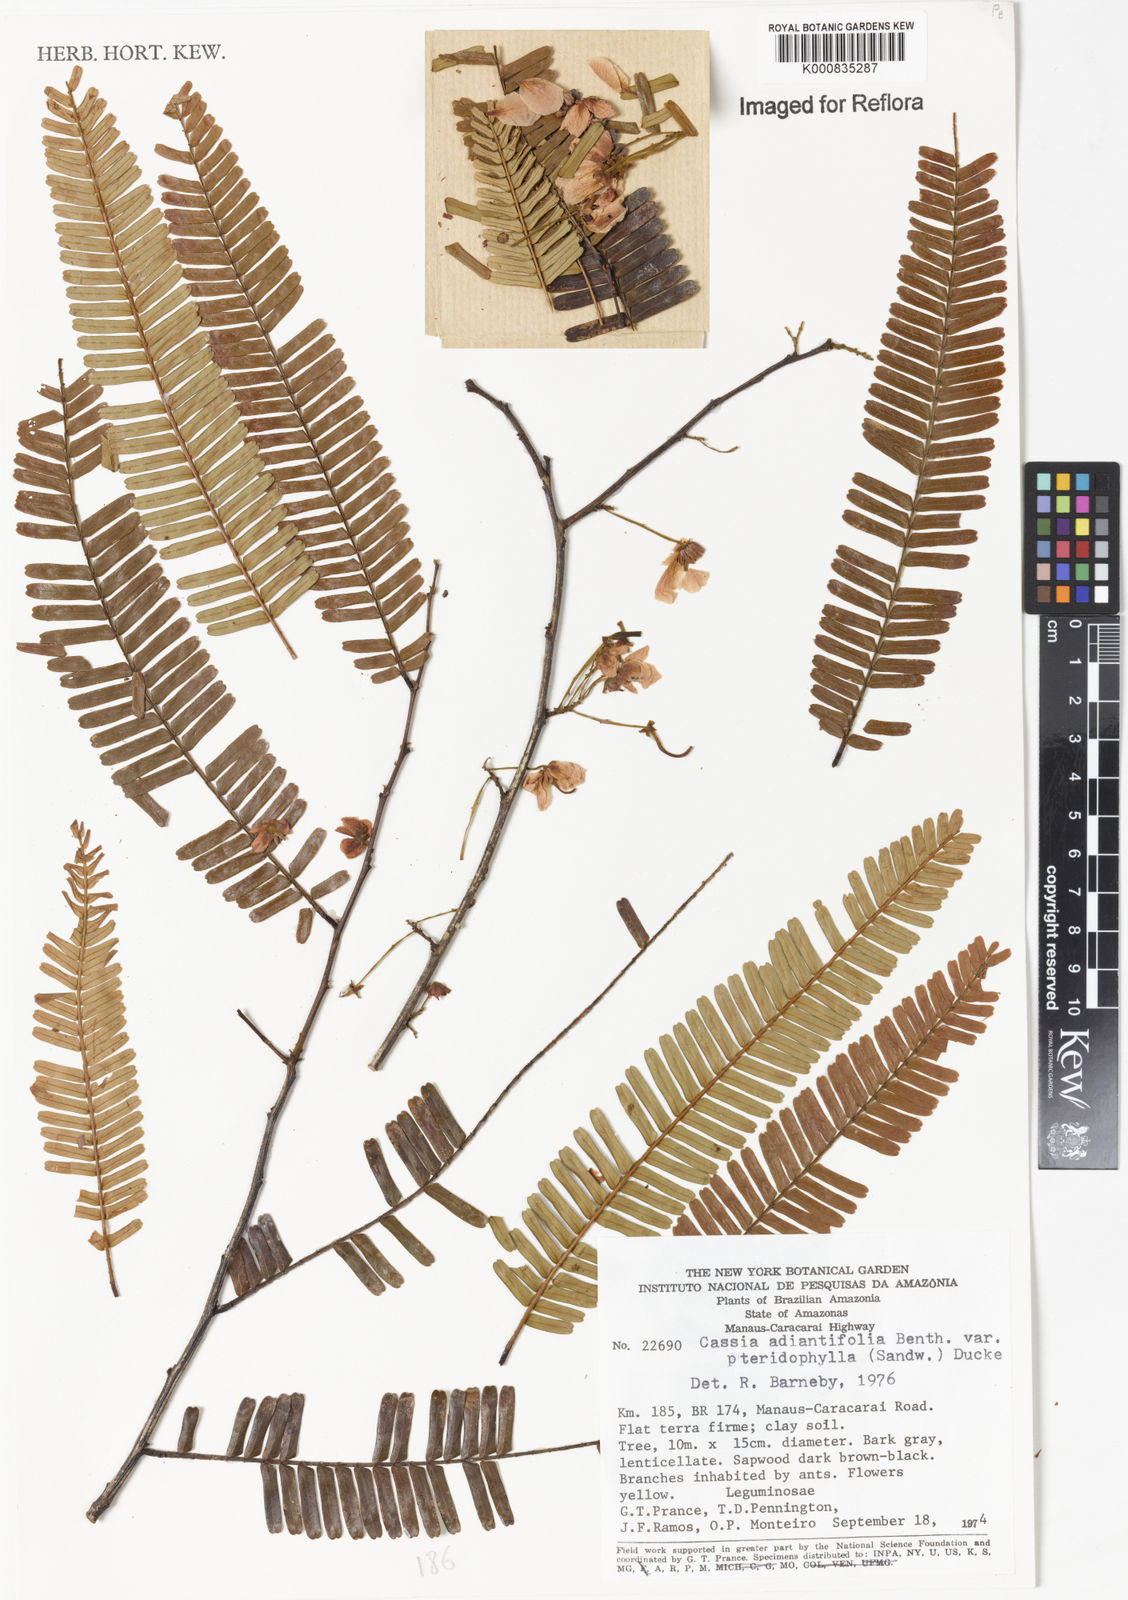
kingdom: Plantae
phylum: Tracheophyta
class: Magnoliopsida
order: Fabales
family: Fabaceae
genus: Chamaecrista
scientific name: Chamaecrista adiantifolia
